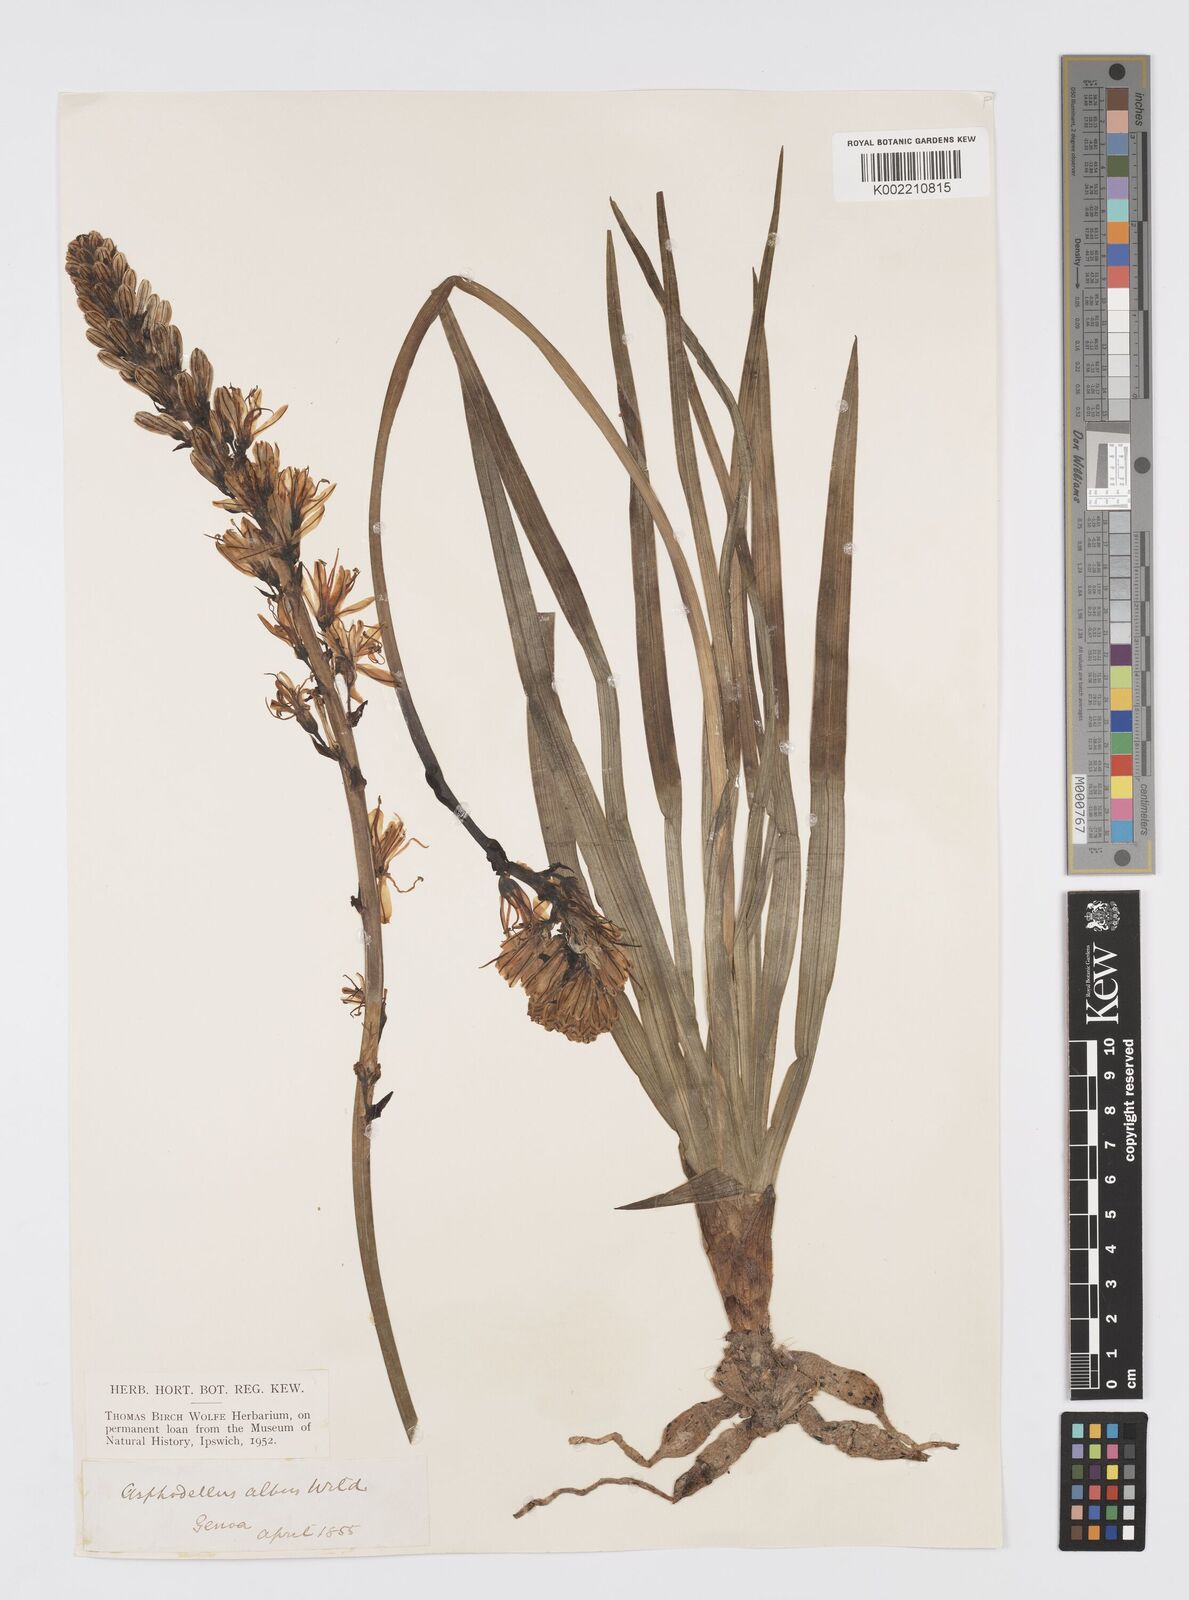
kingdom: Plantae
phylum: Tracheophyta
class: Liliopsida
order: Asparagales
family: Asphodelaceae
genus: Asphodelus
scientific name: Asphodelus albus
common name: White asphodel
